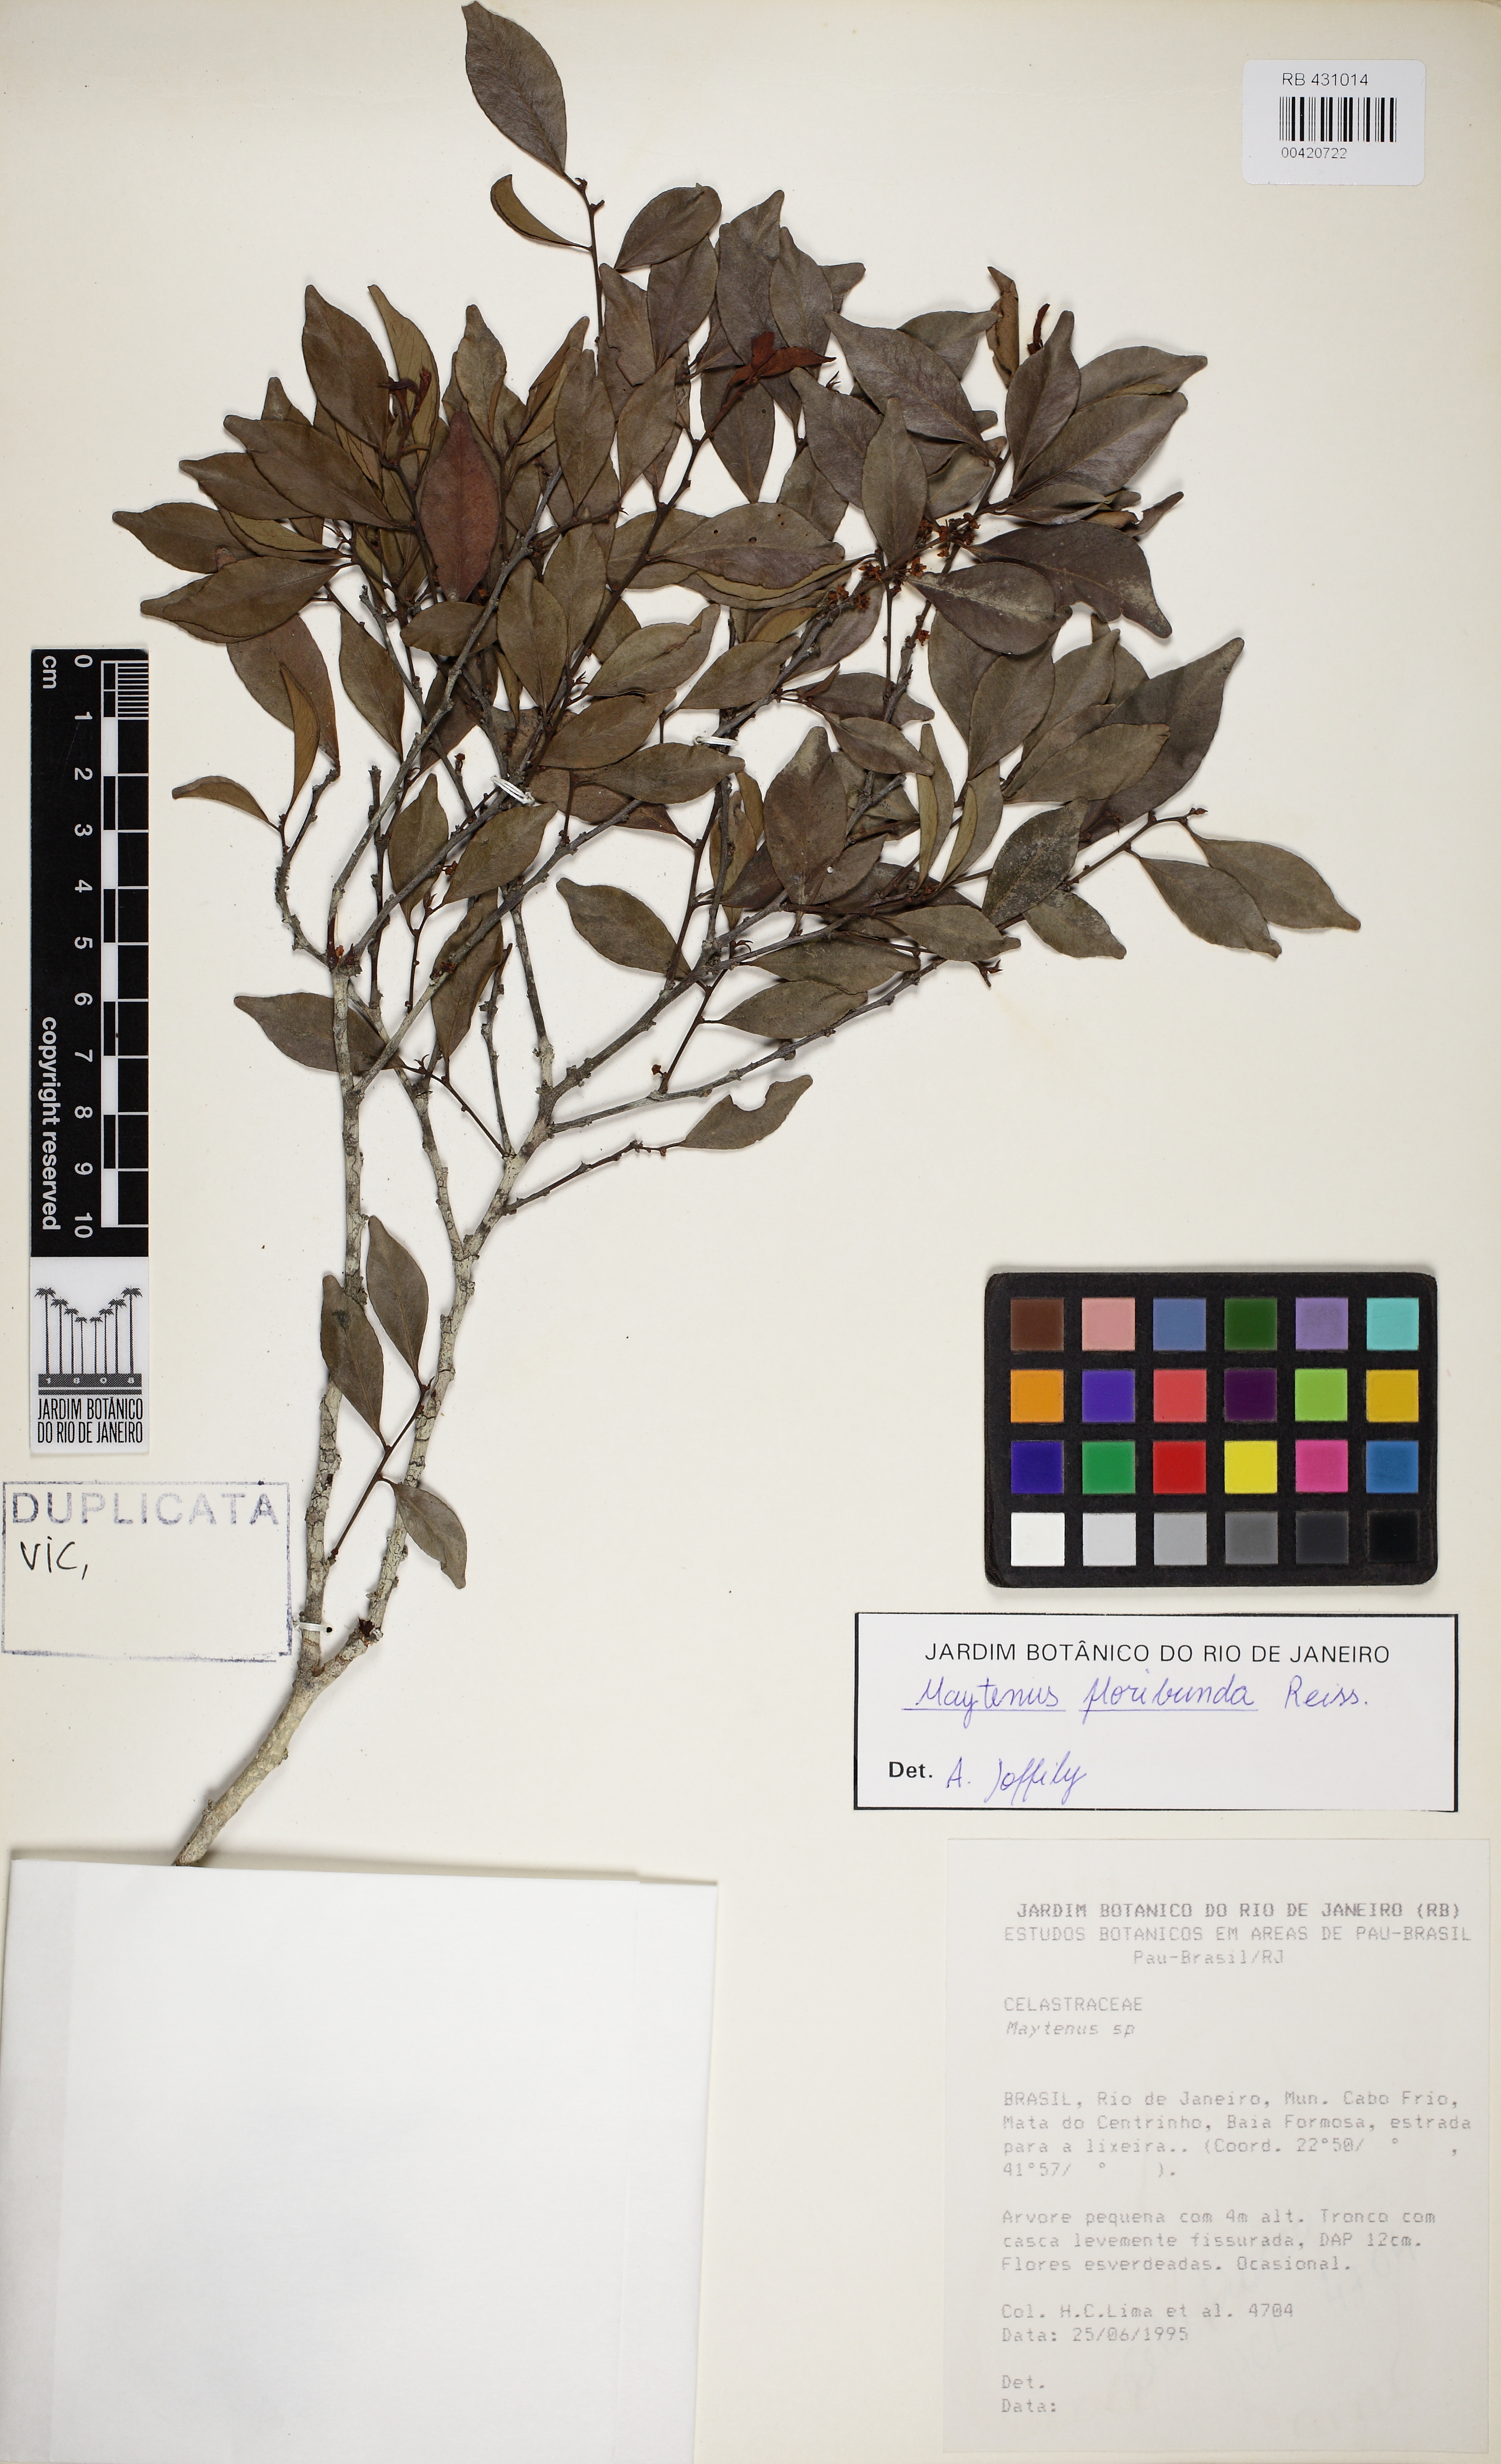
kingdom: Plantae
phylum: Tracheophyta
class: Magnoliopsida
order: Celastrales
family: Celastraceae
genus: Monteverdia
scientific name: Monteverdia floribunda
